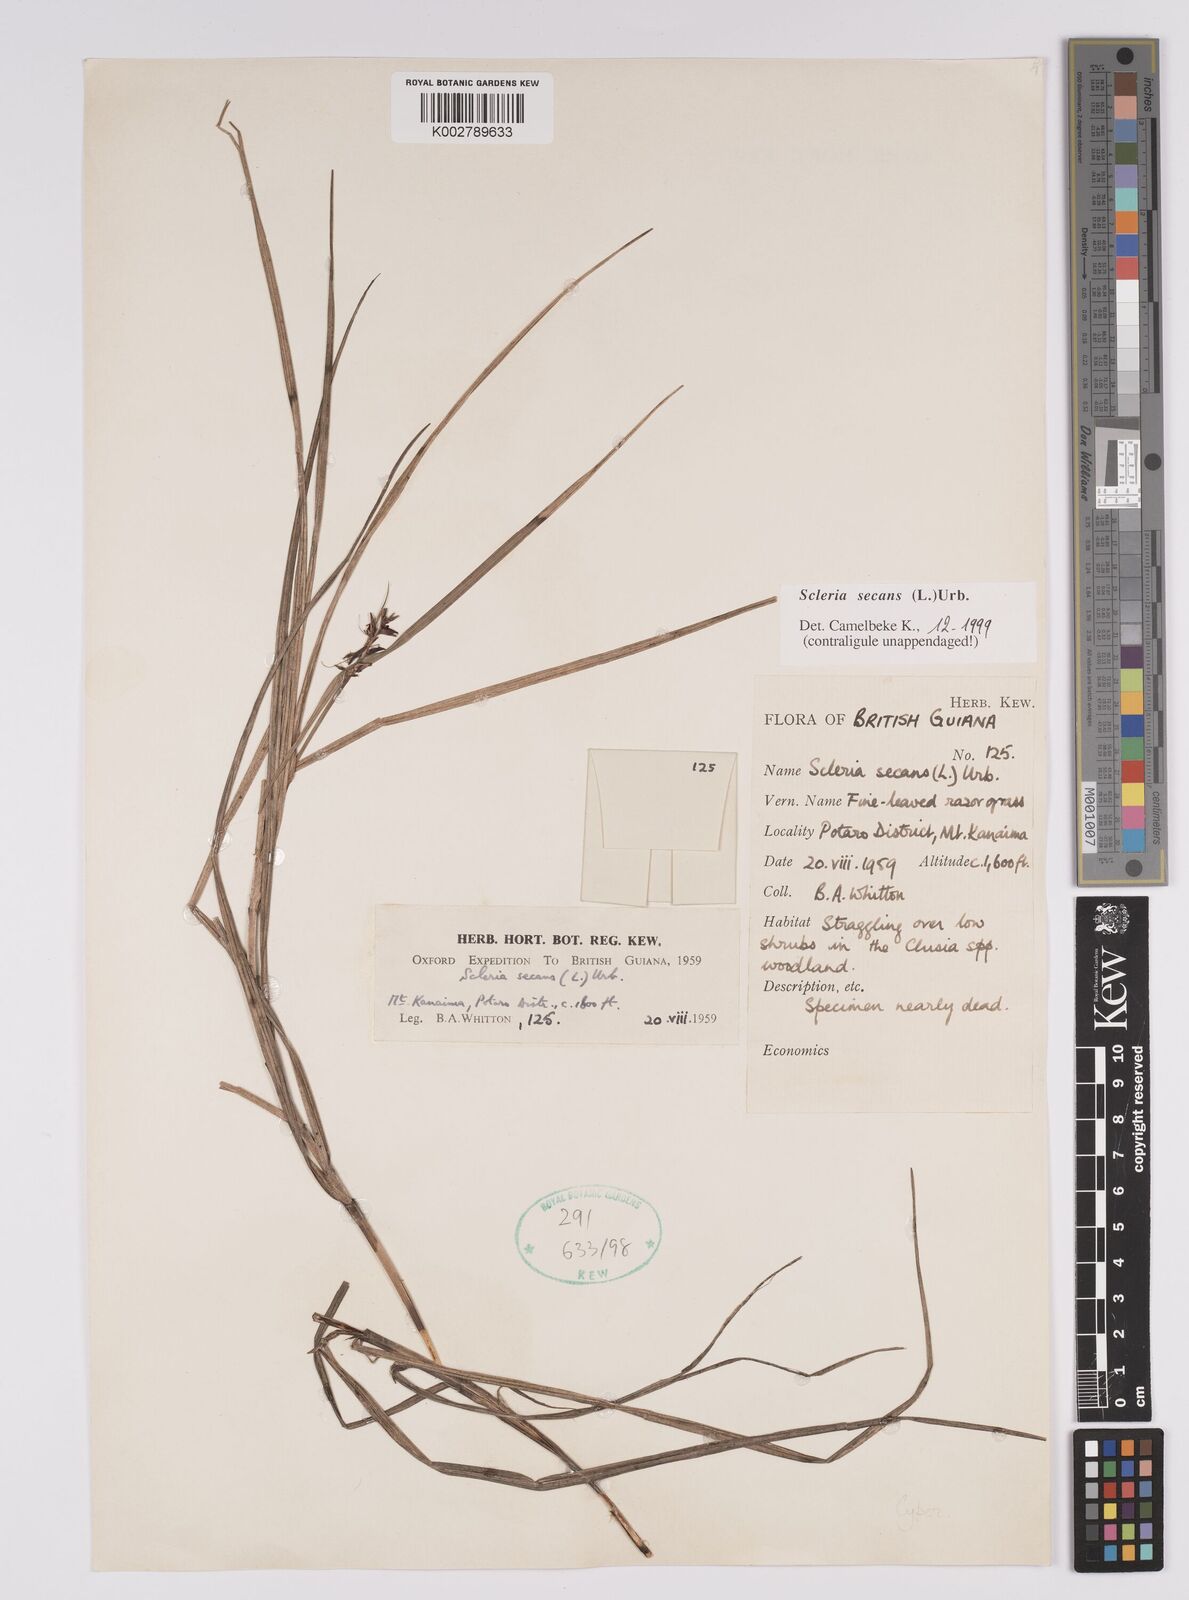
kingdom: Plantae
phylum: Tracheophyta
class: Liliopsida
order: Poales
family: Cyperaceae
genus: Scleria
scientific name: Scleria secans
